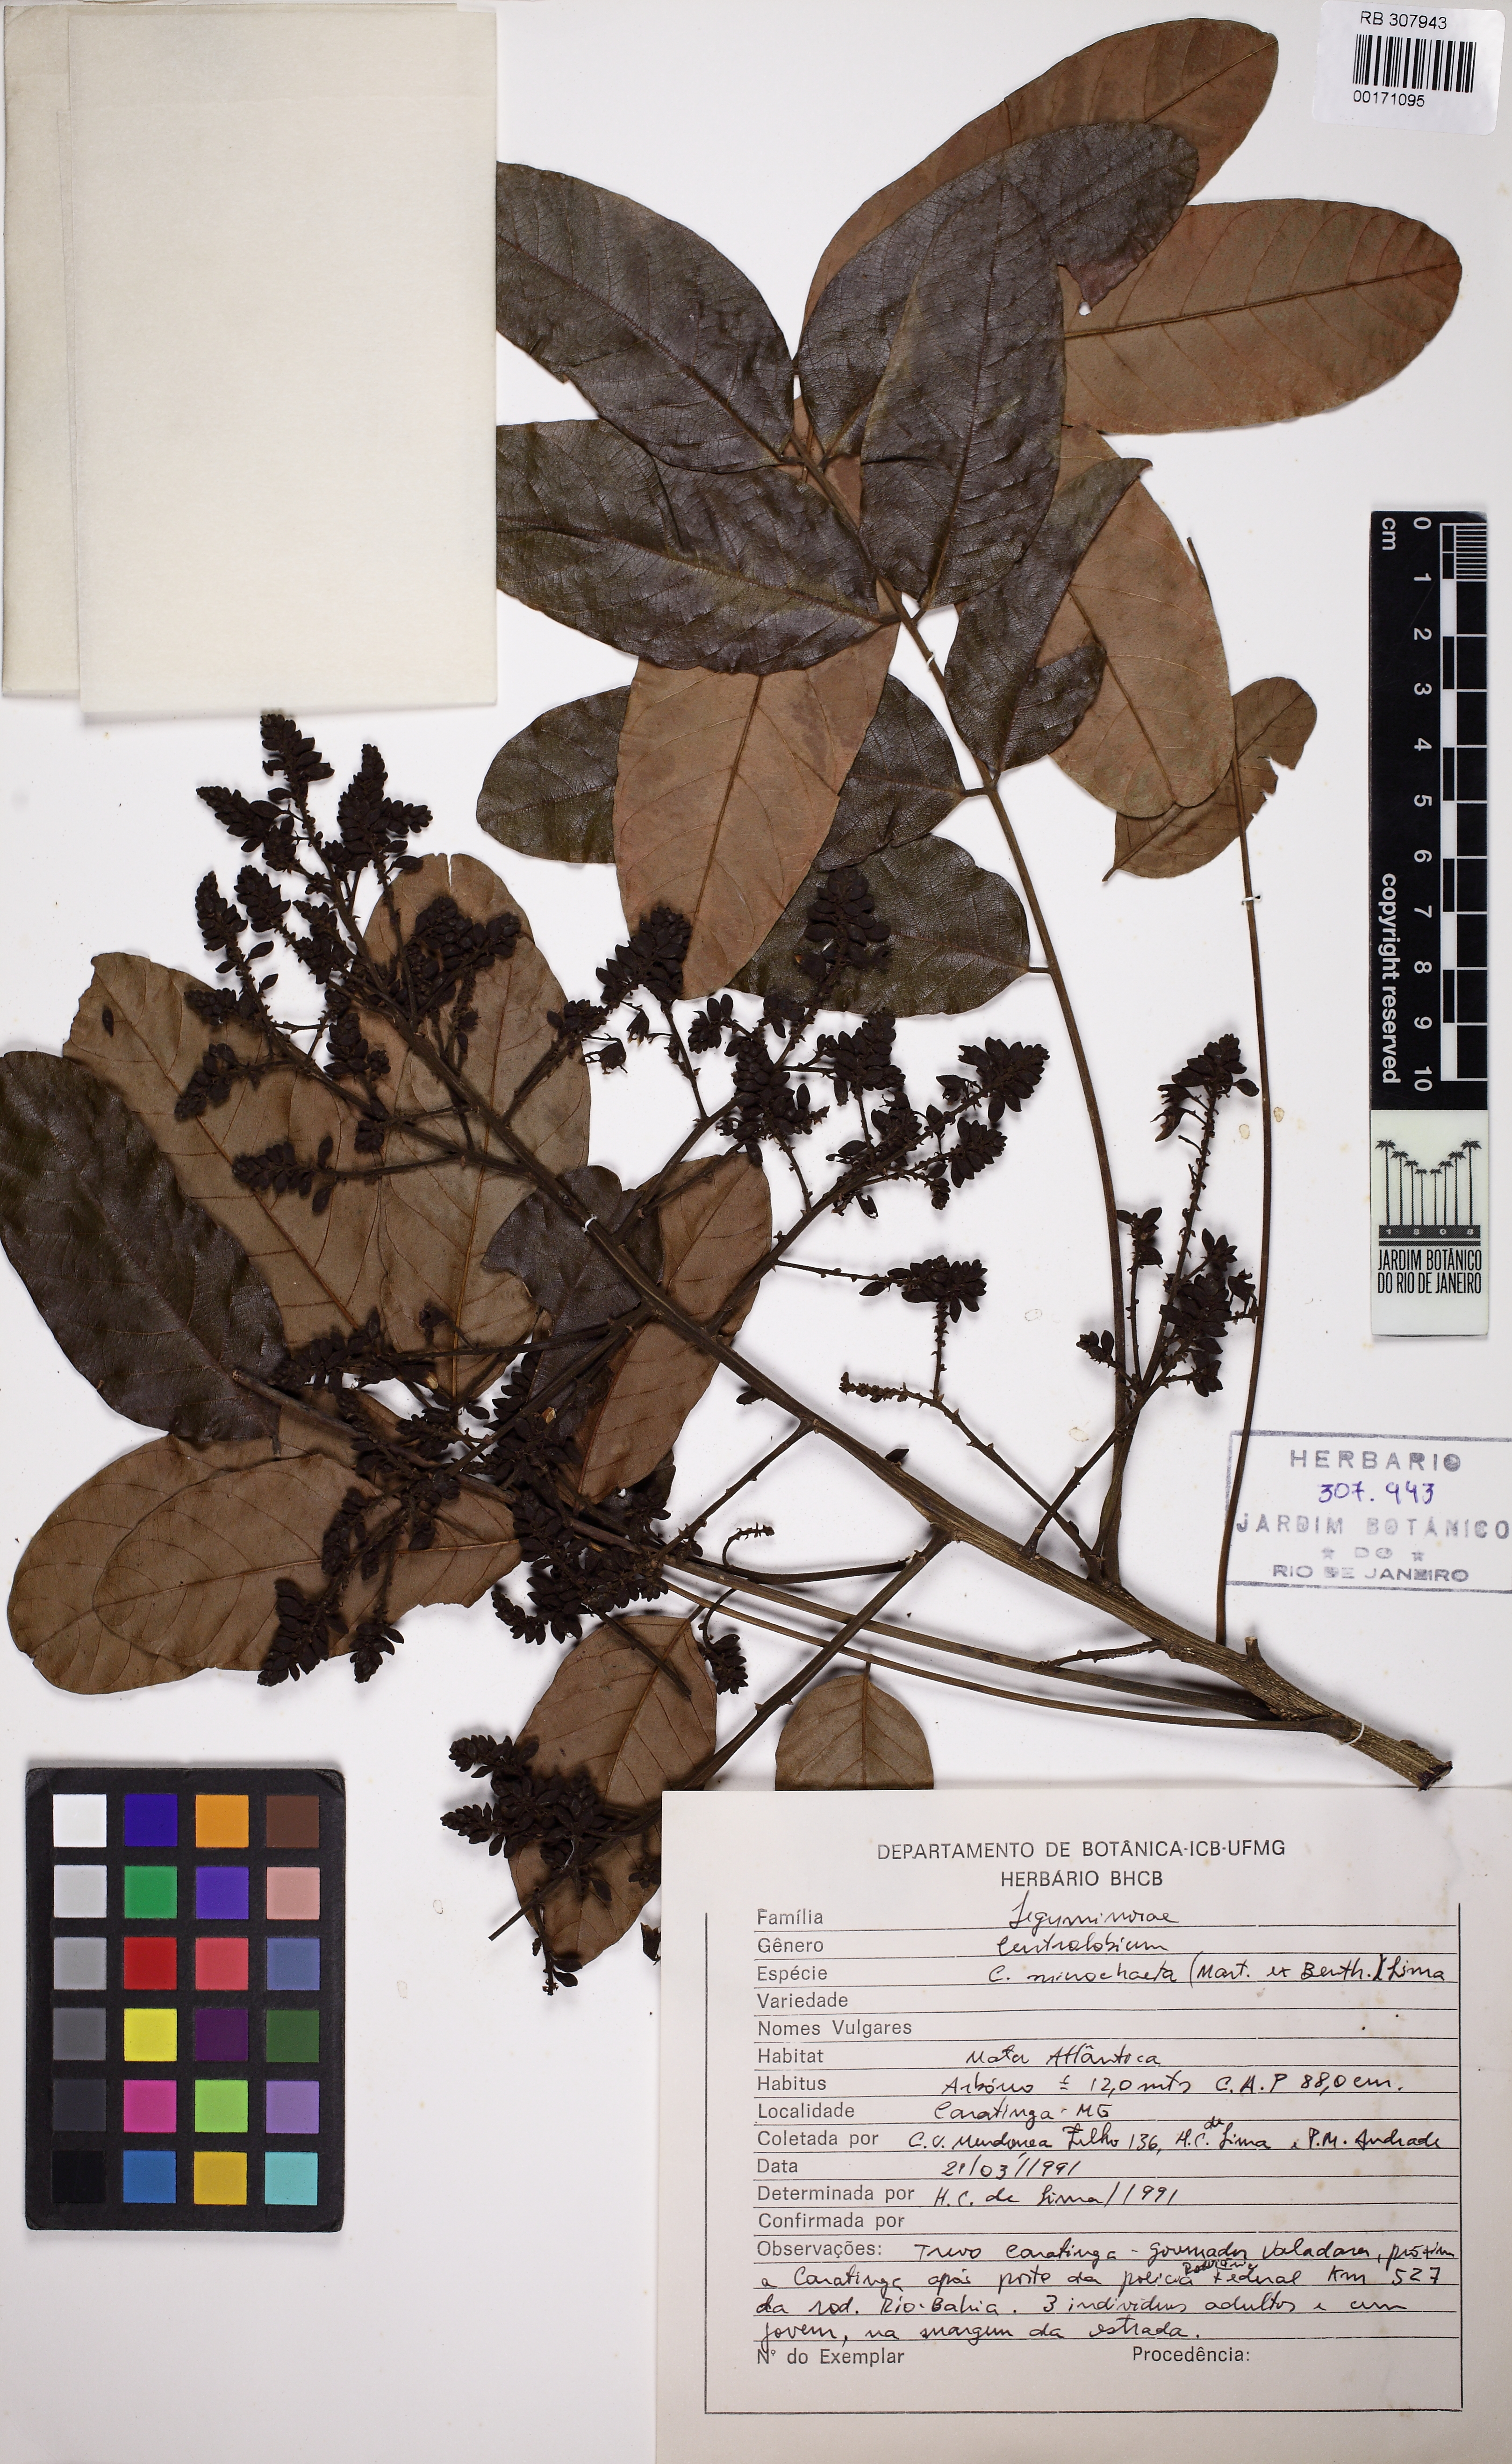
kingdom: Plantae
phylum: Tracheophyta
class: Magnoliopsida
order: Fabales
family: Fabaceae
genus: Centrolobium
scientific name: Centrolobium microchaete
